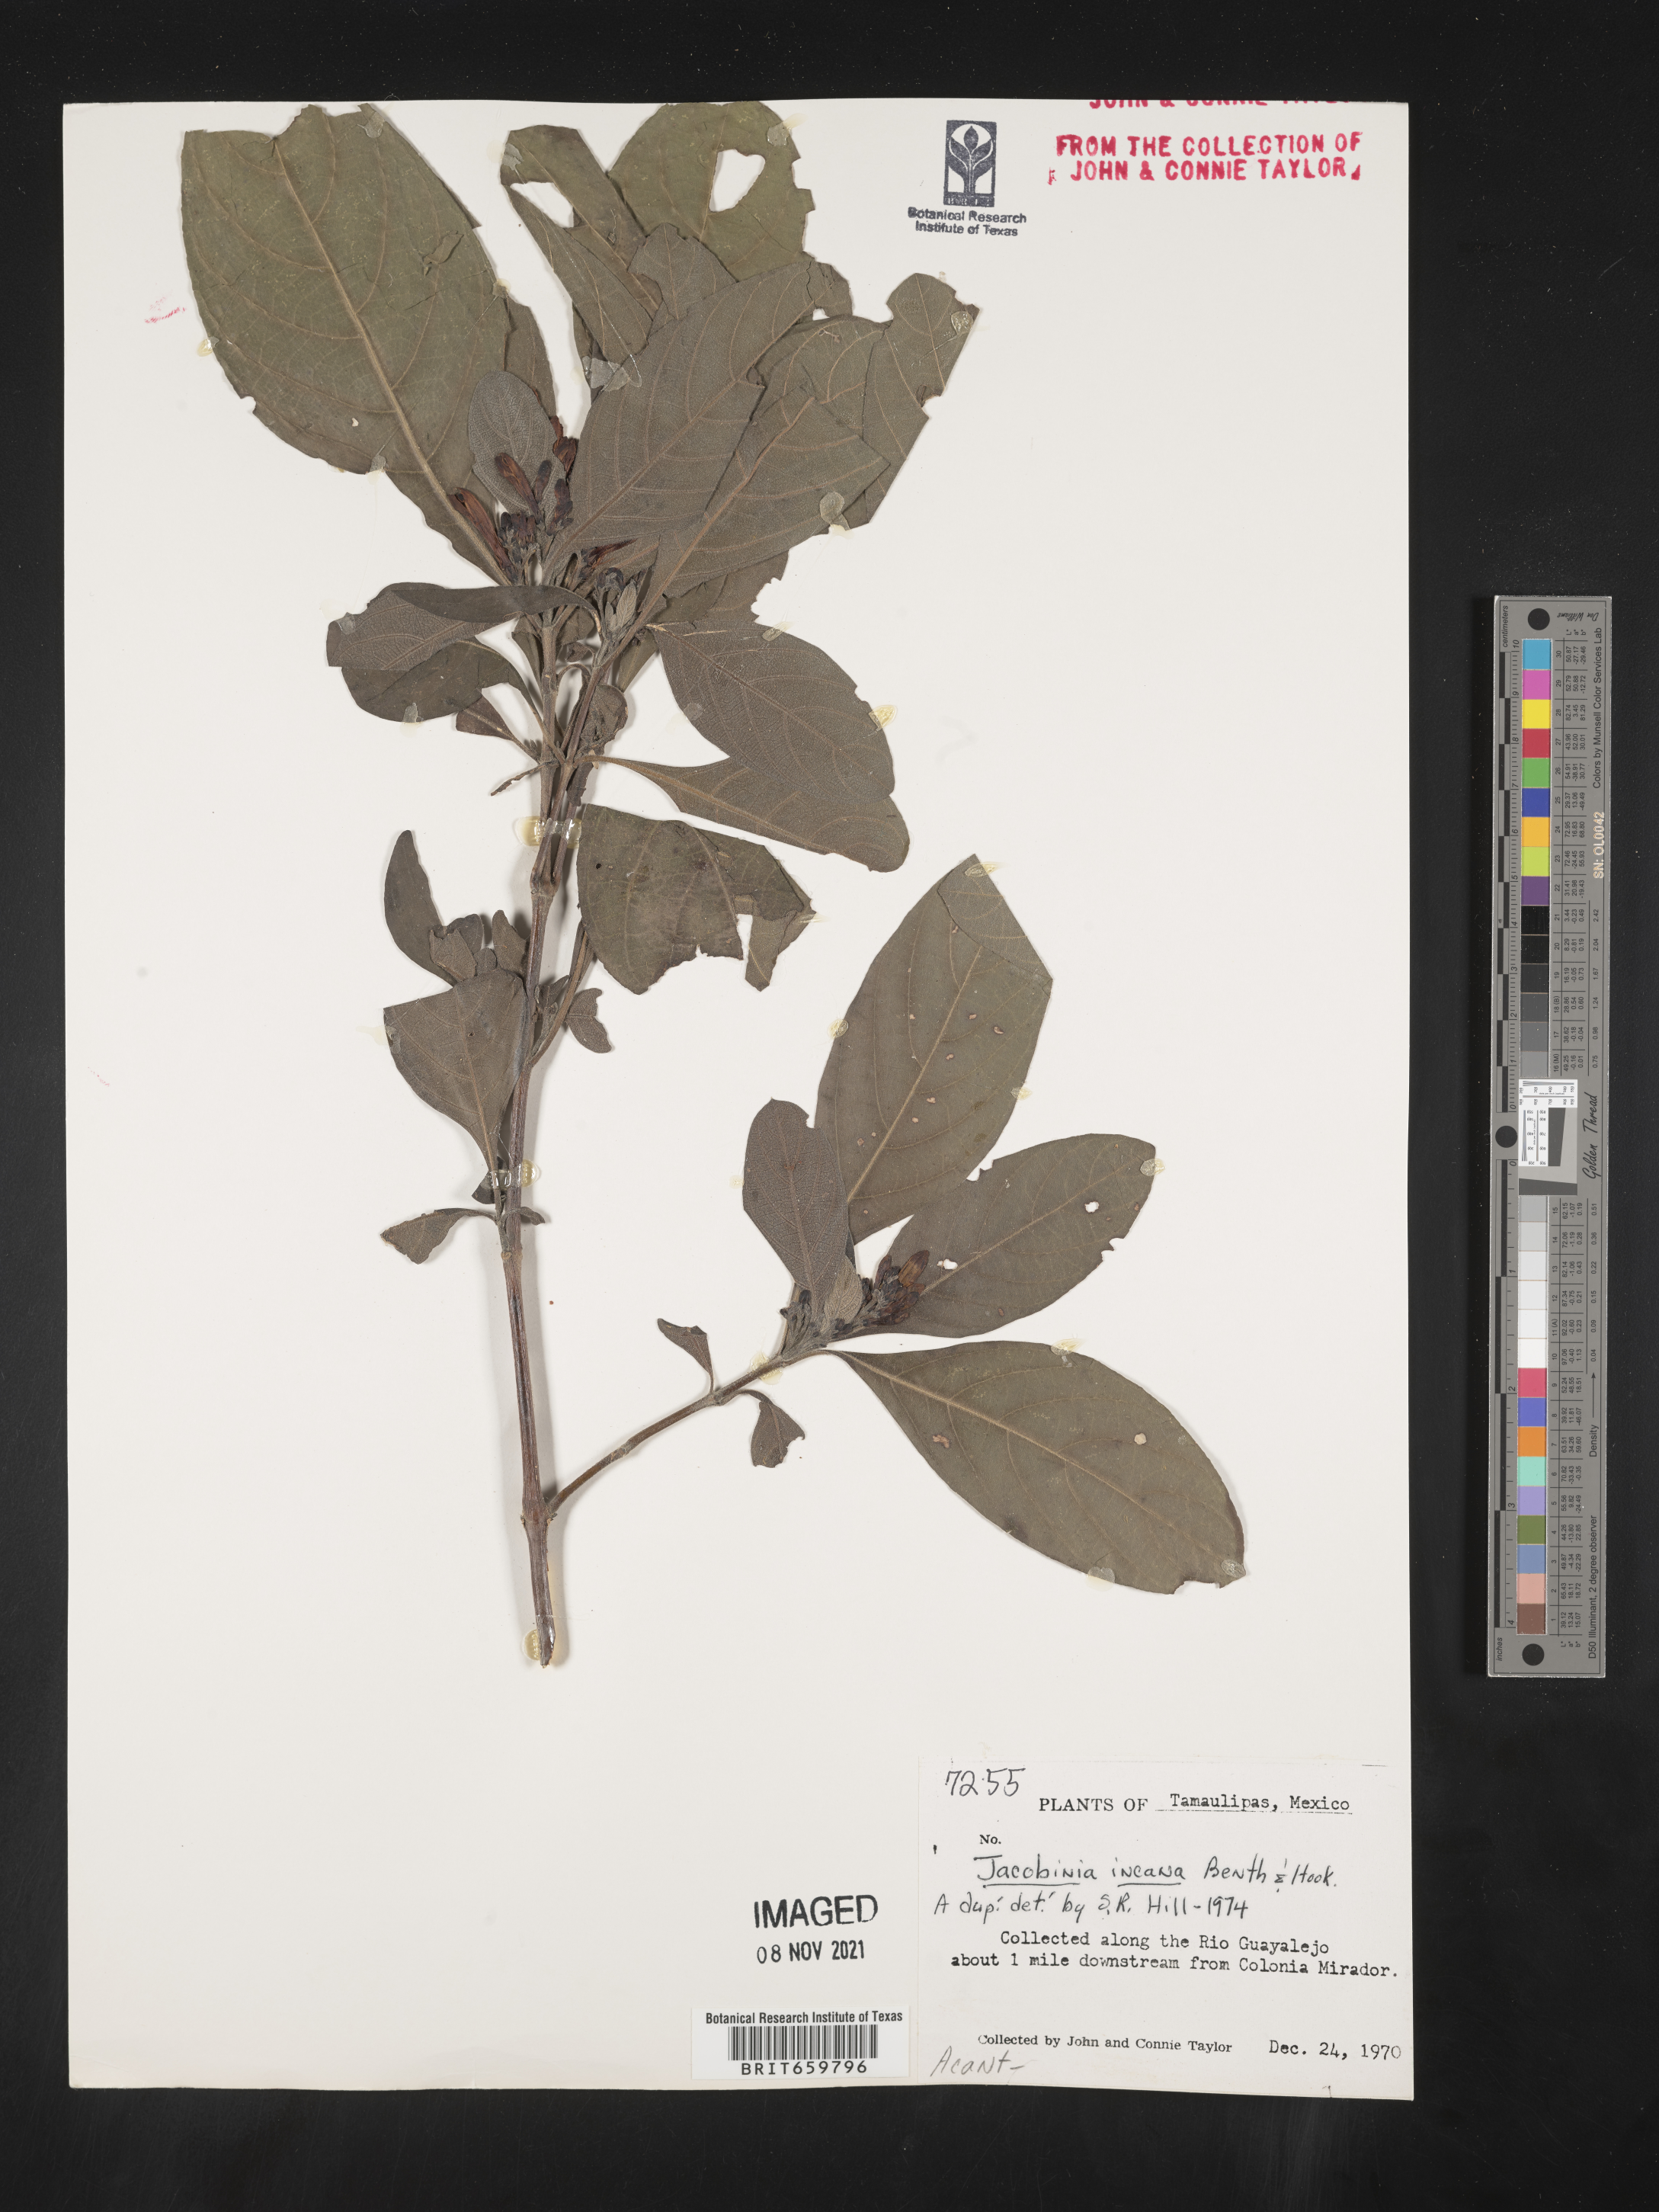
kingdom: Plantae
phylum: Tracheophyta
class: Magnoliopsida
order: Lamiales
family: Acanthaceae
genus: Justicia
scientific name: Justicia
